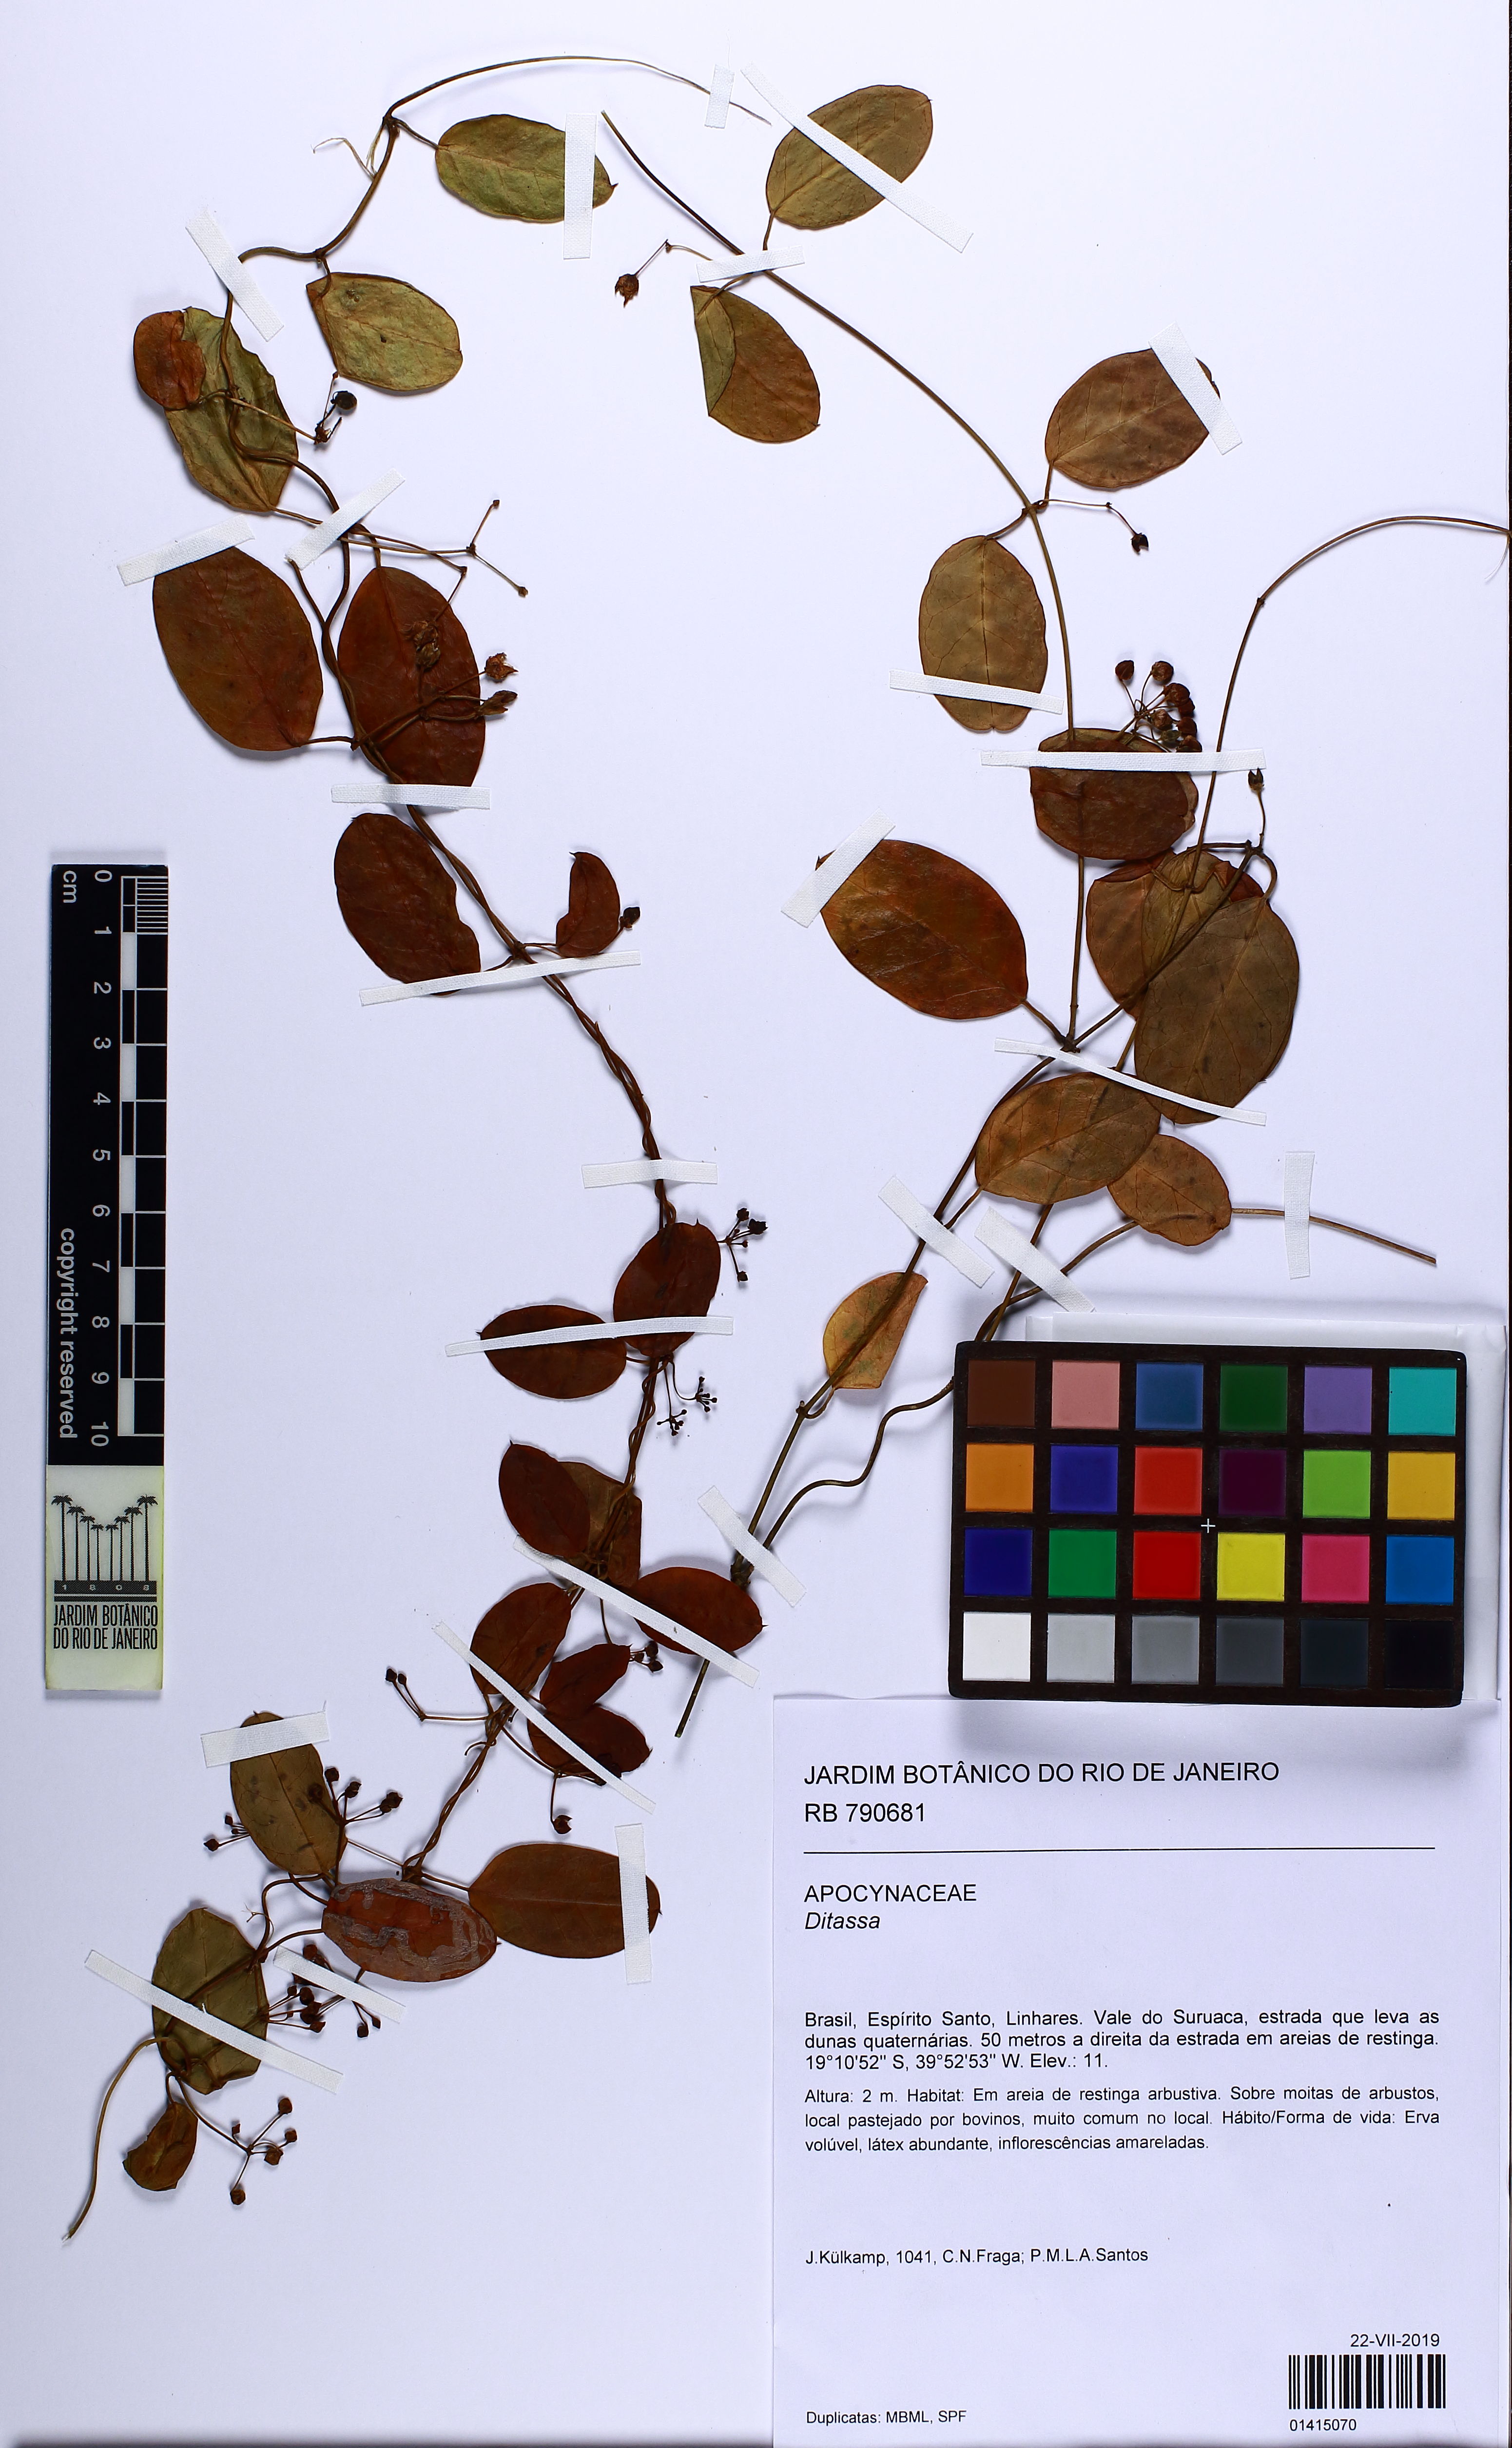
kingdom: Plantae
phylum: Tracheophyta
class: Magnoliopsida
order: Gentianales
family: Apocynaceae
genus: Ditassa
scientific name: Ditassa
